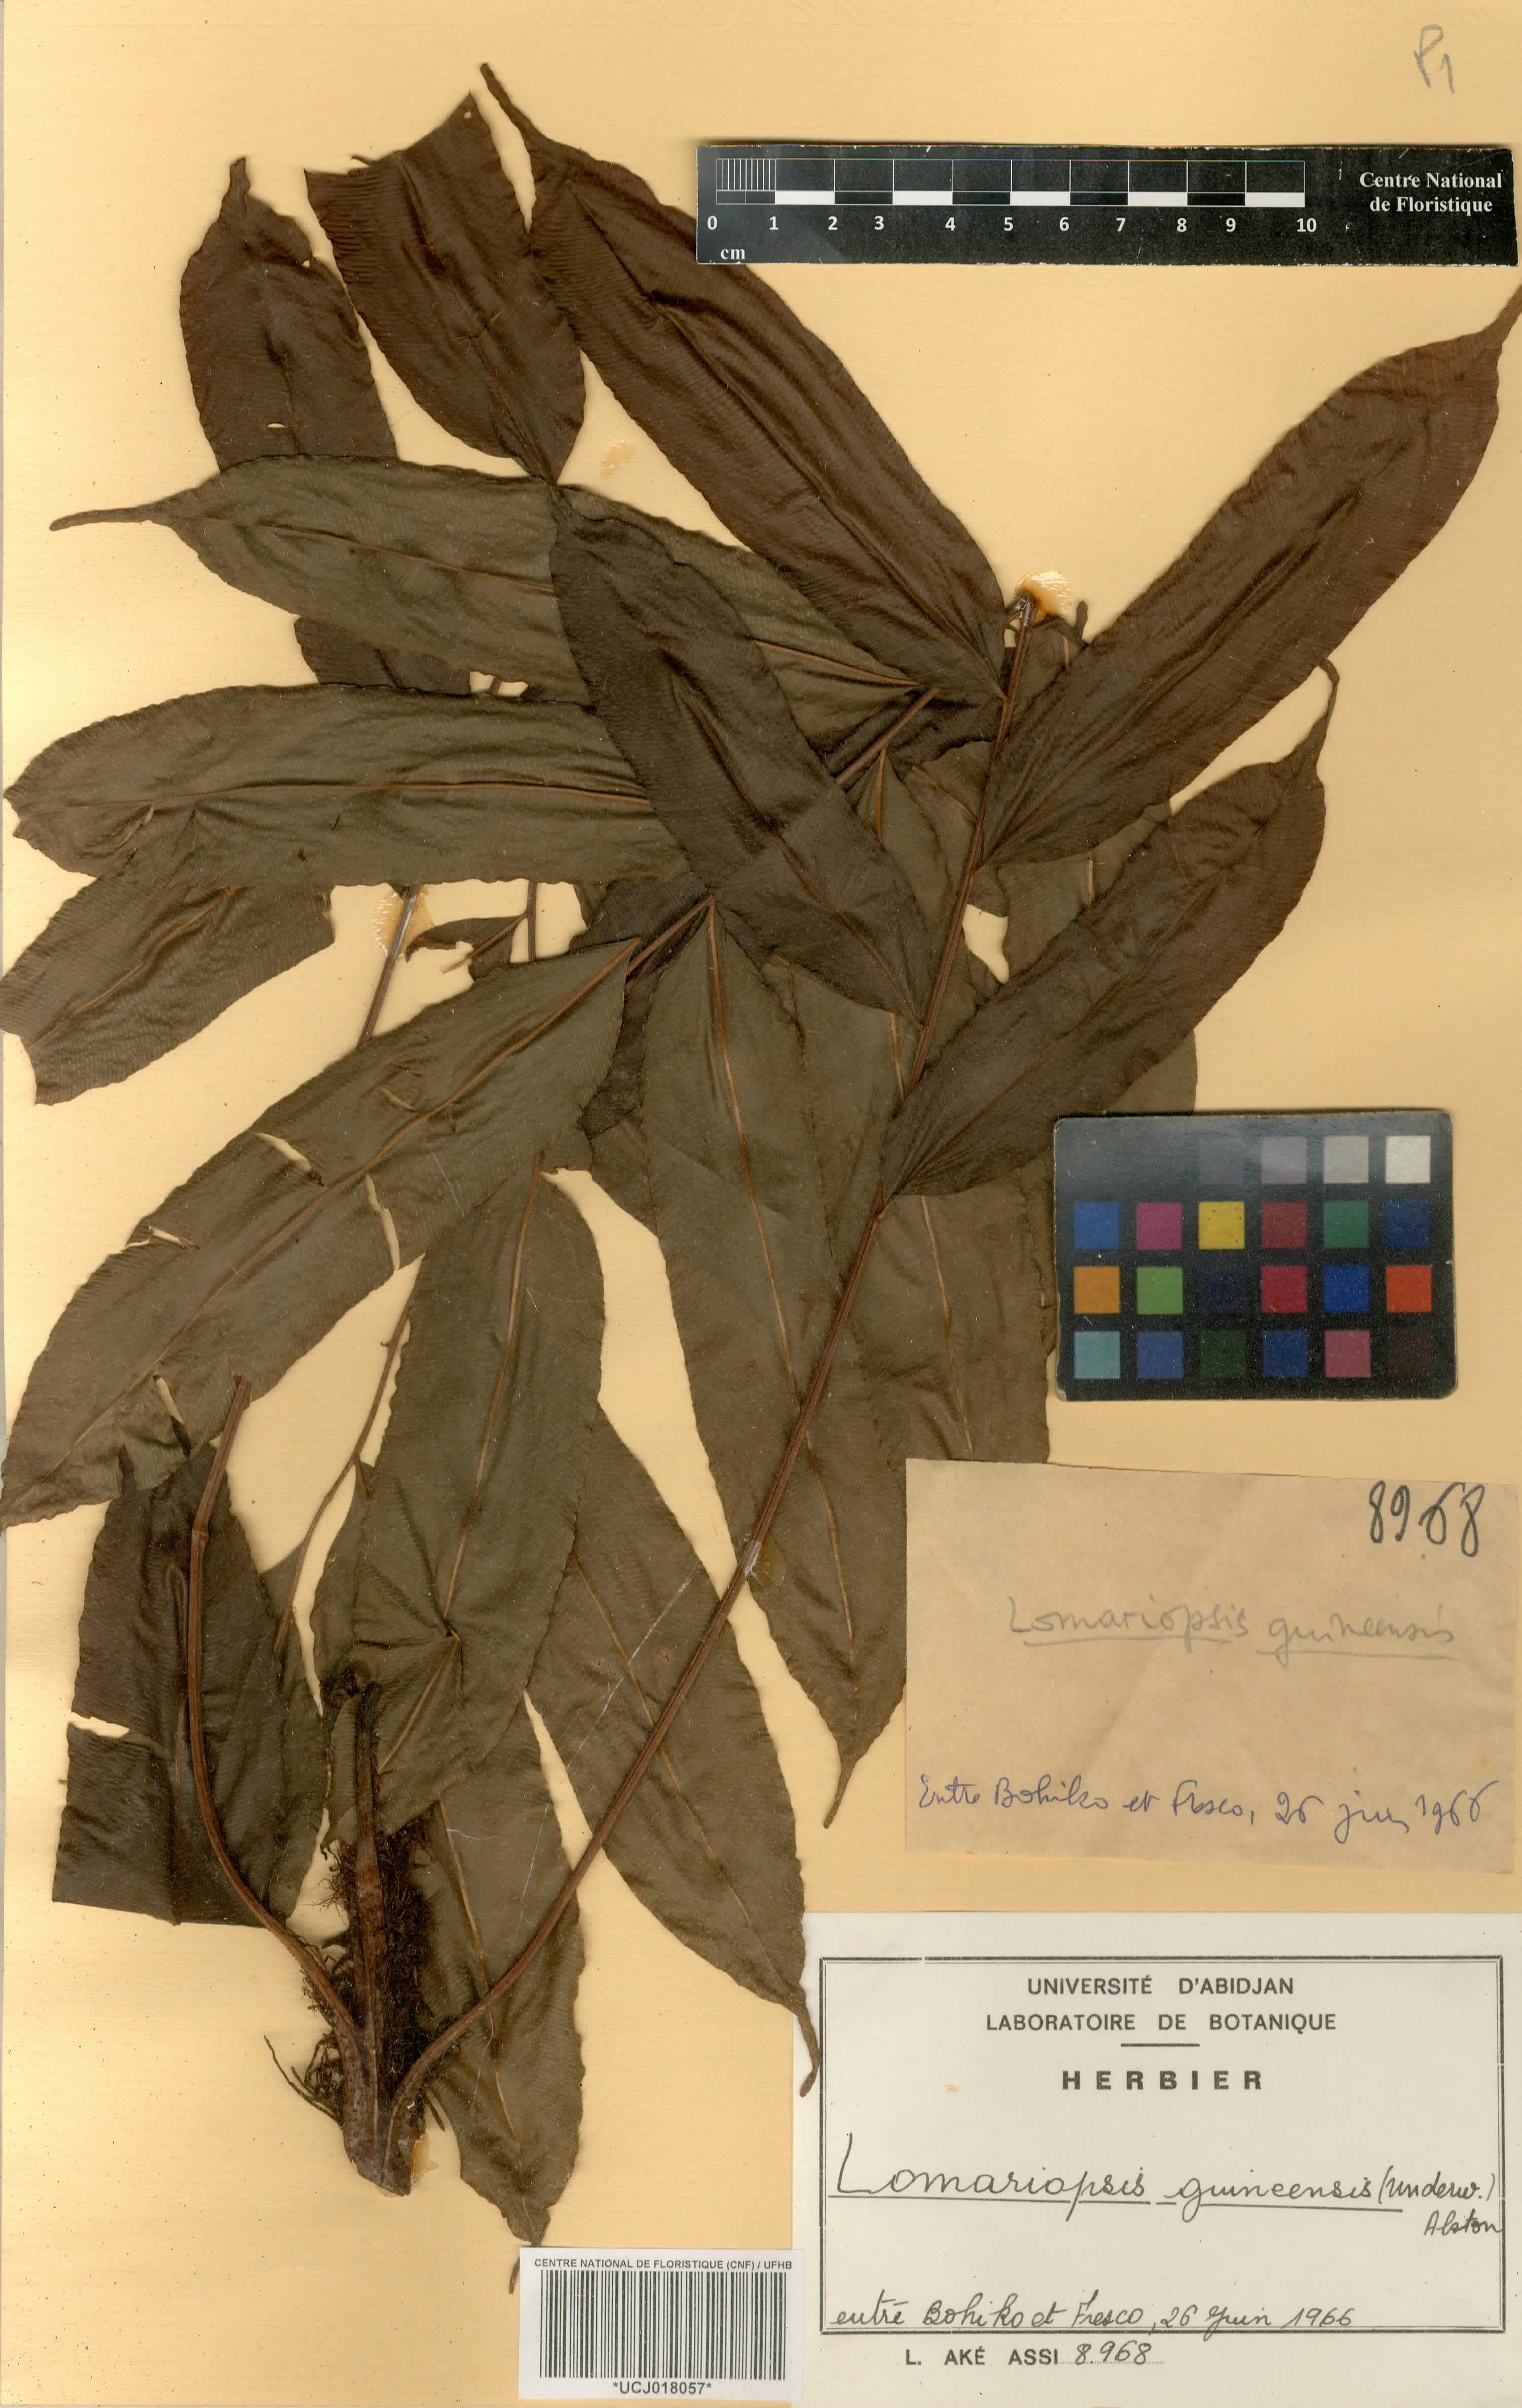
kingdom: Plantae
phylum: Tracheophyta
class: Polypodiopsida
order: Polypodiales
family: Lomariopsidaceae
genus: Lomariopsis
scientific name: Lomariopsis guineensis
